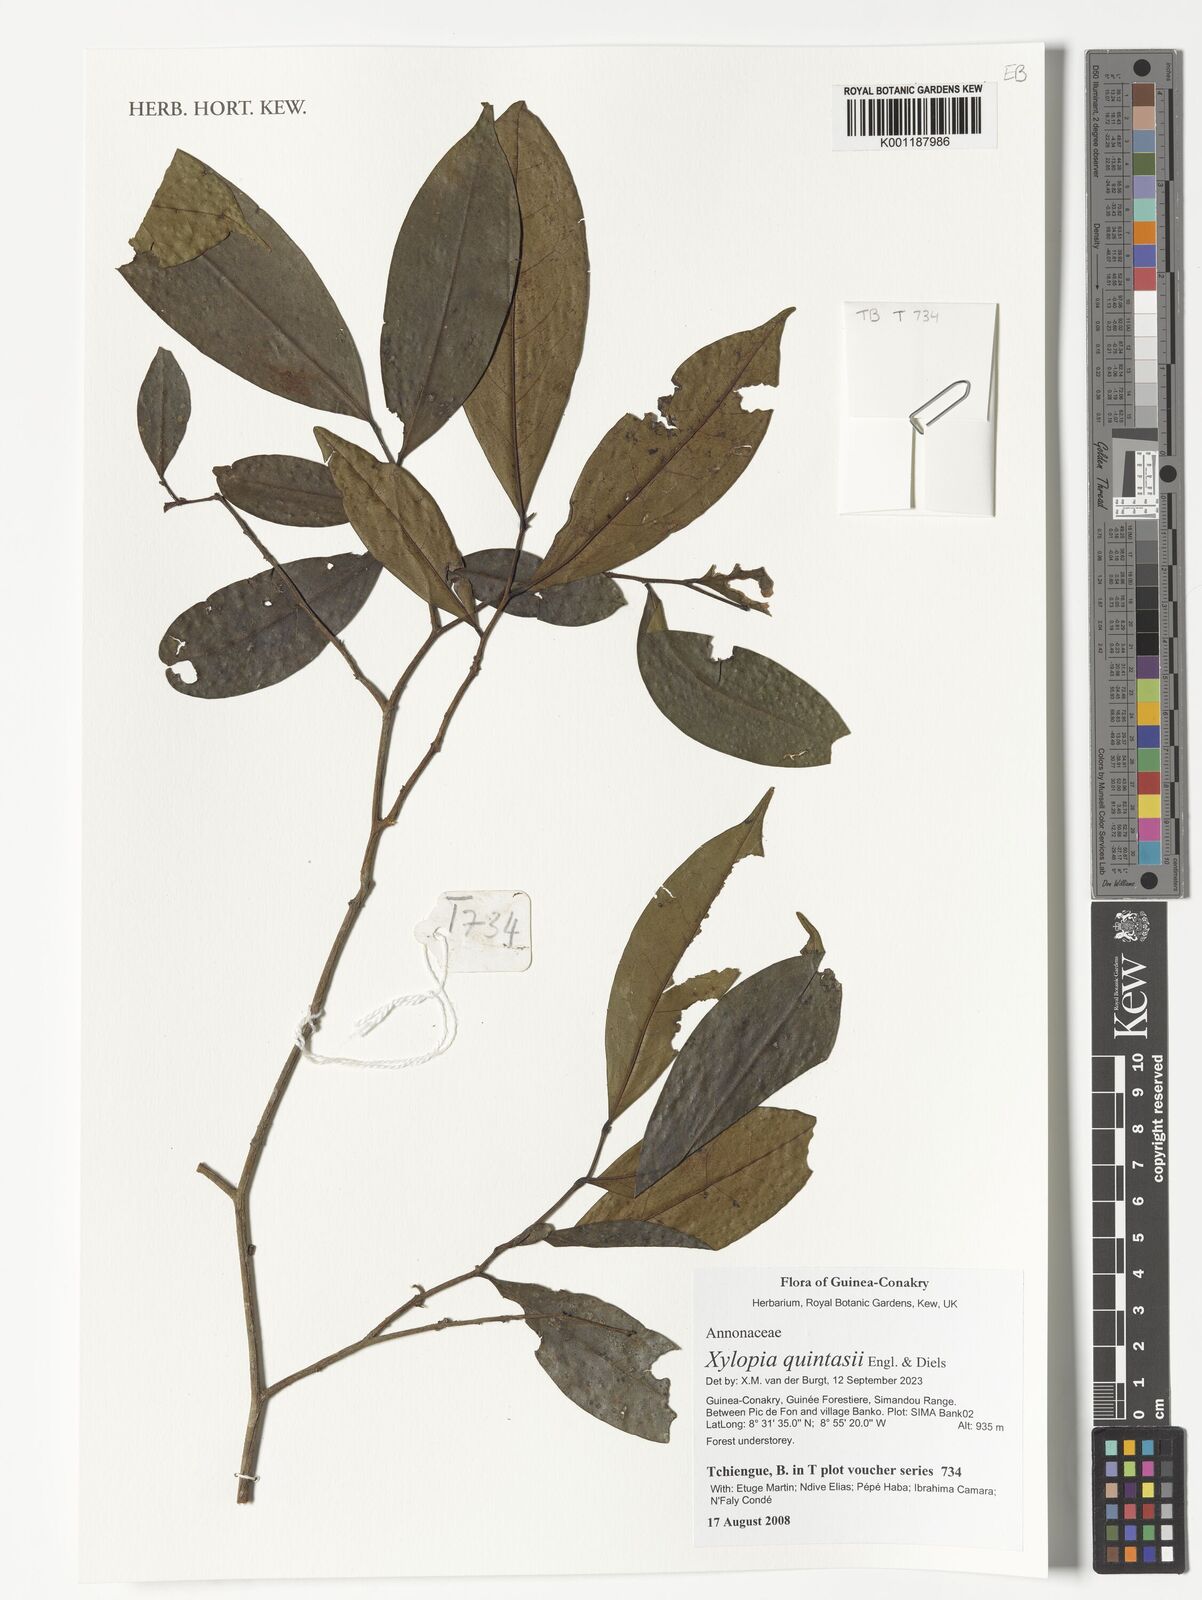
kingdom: Plantae
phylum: Tracheophyta
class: Magnoliopsida
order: Magnoliales
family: Annonaceae
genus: Xylopia
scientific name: Xylopia quintasii
